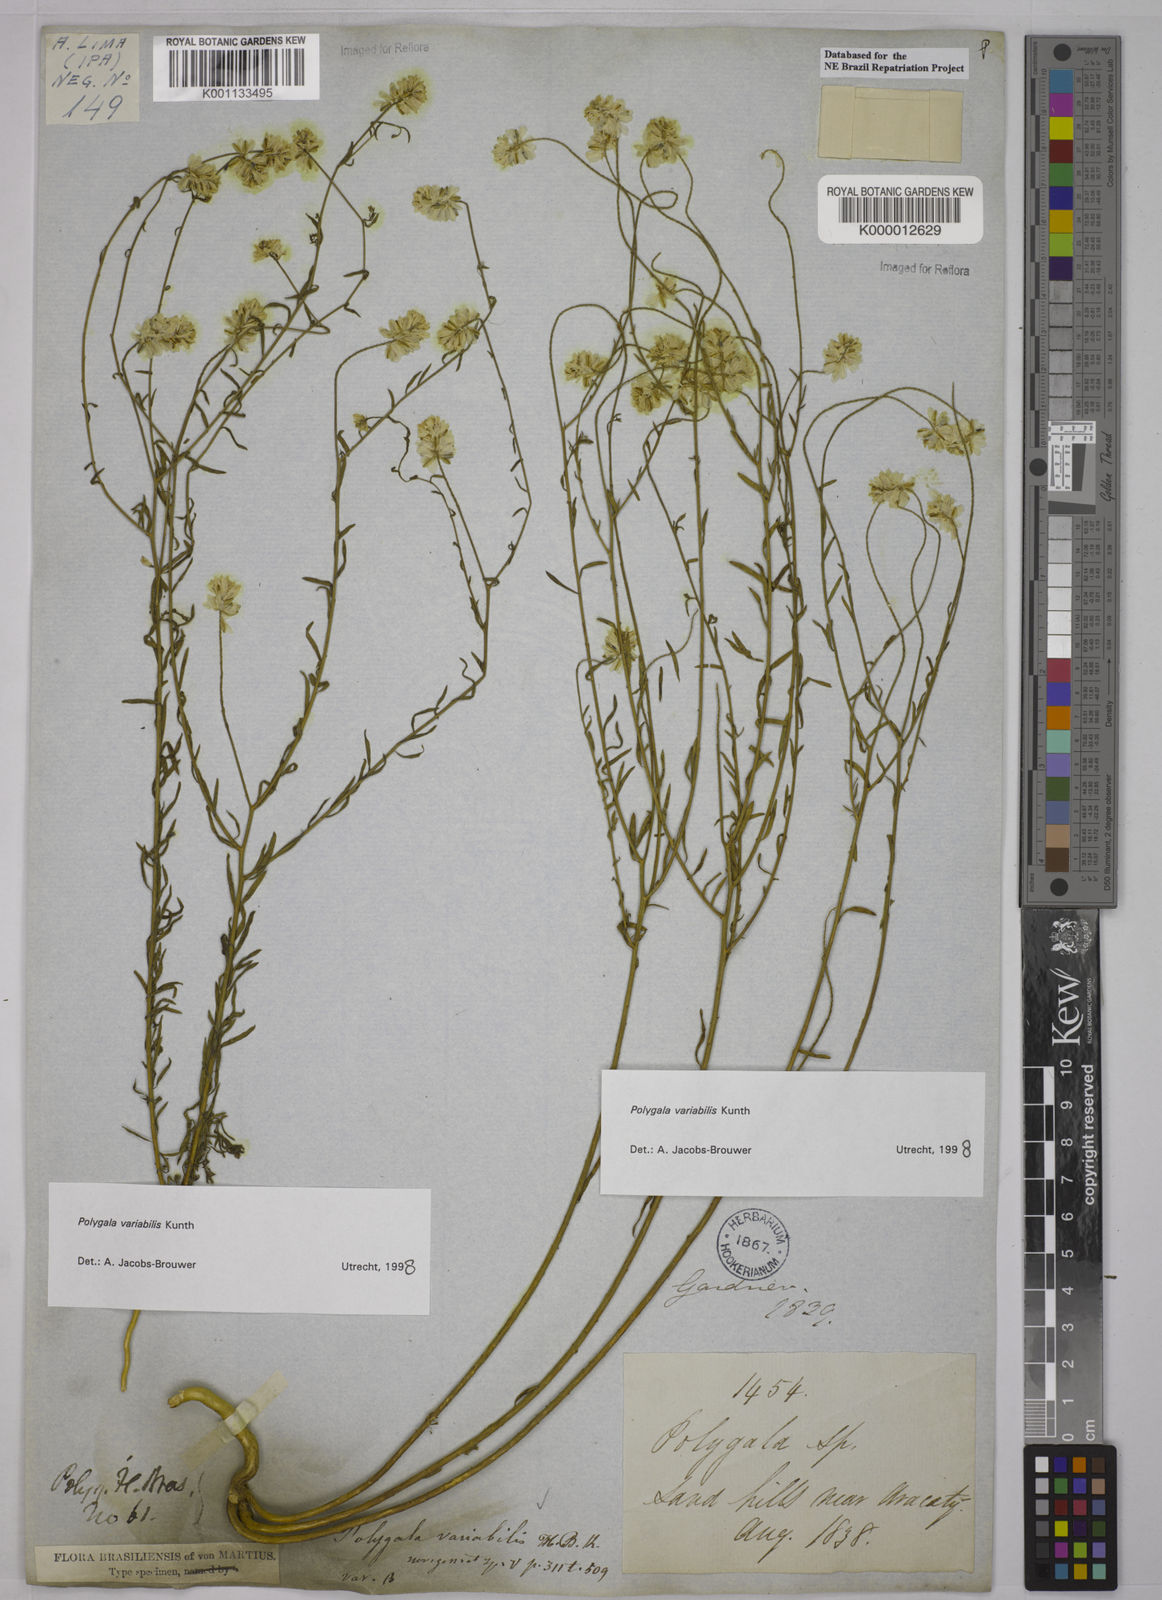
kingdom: Plantae
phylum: Tracheophyta
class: Magnoliopsida
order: Fabales
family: Polygalaceae
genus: Polygala
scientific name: Polygala trichosperma
